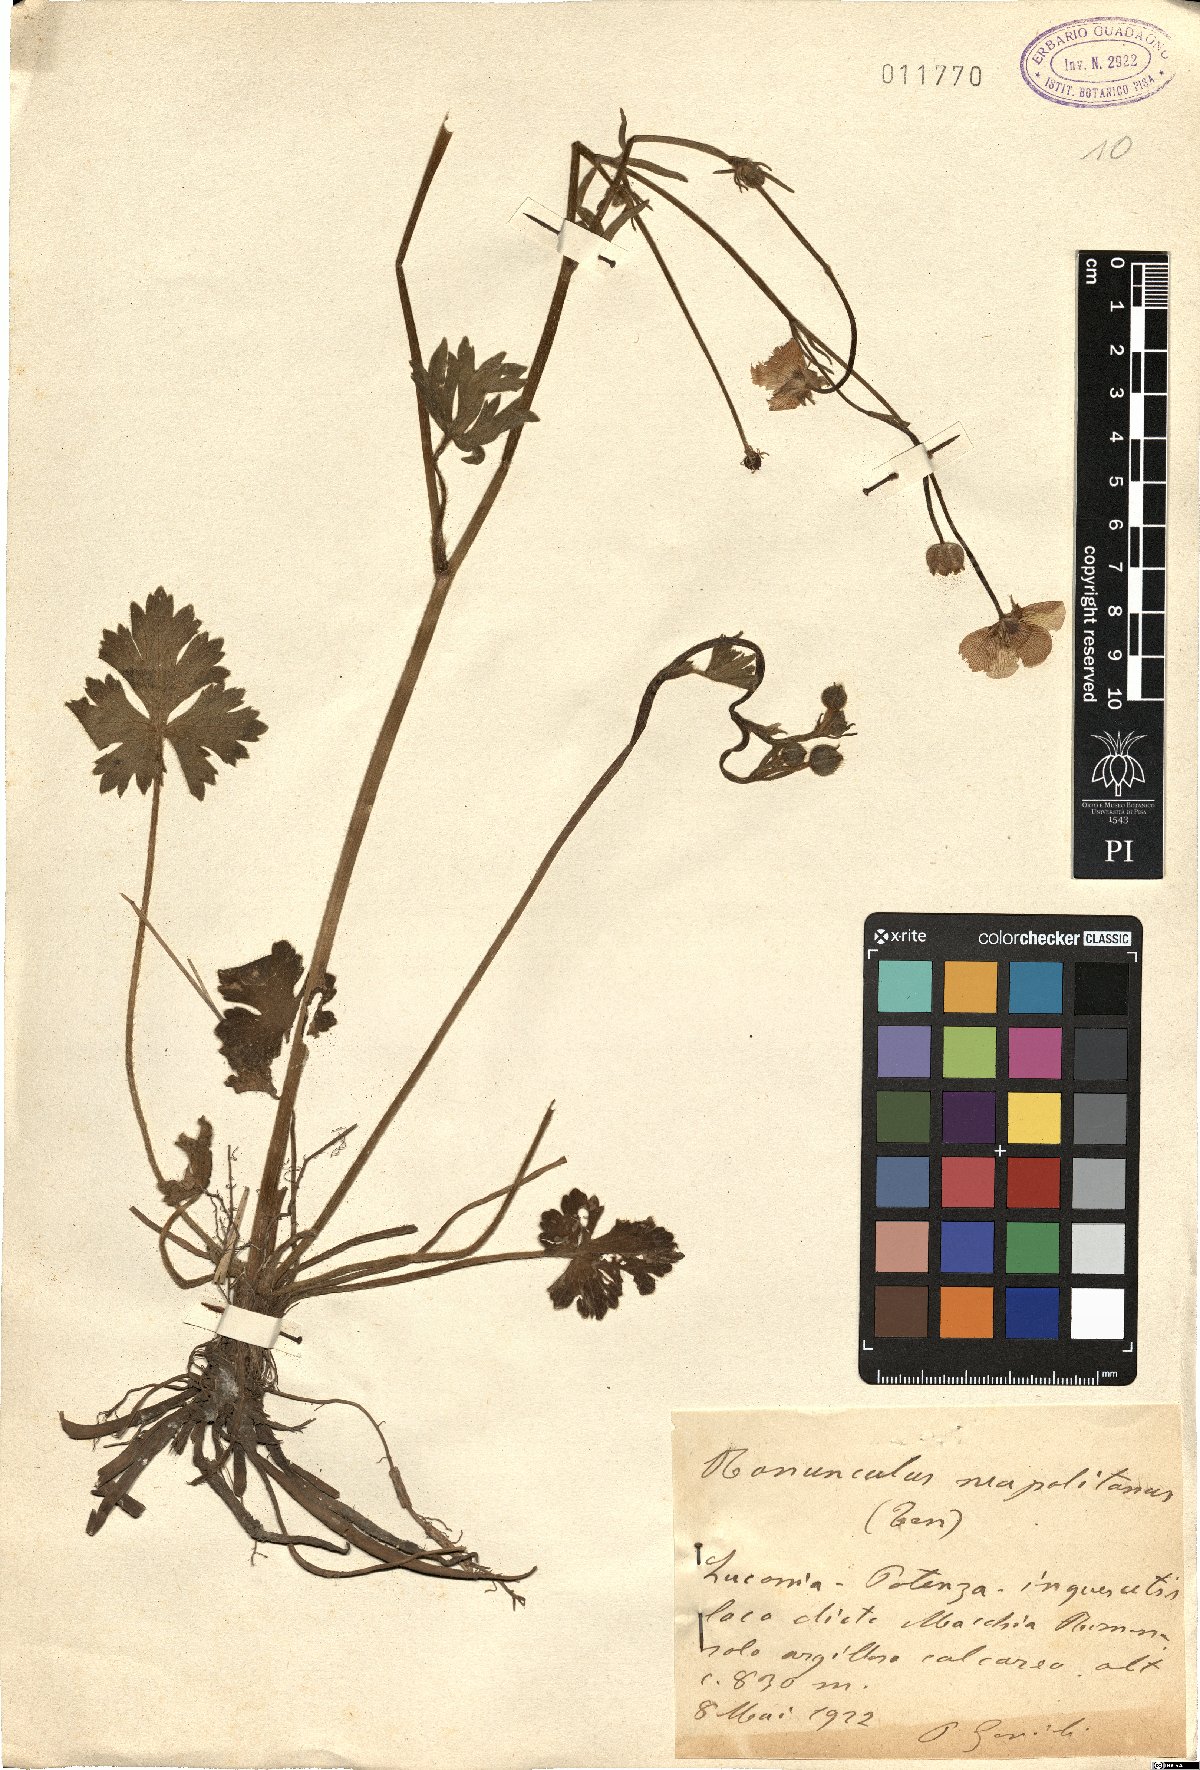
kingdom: Plantae
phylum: Tracheophyta
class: Magnoliopsida
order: Ranunculales
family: Ranunculaceae
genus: Ranunculus
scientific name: Ranunculus neapolitanus
